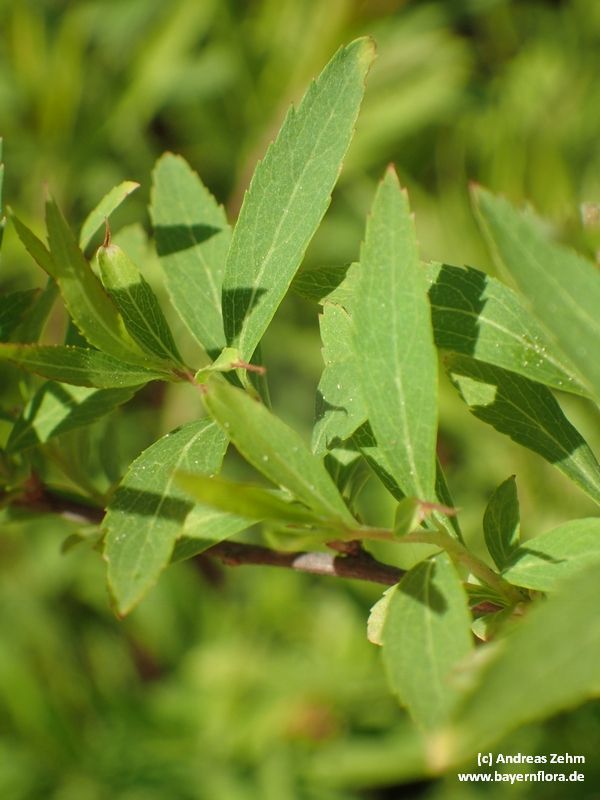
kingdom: Plantae
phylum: Tracheophyta
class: Magnoliopsida
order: Rosales
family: Rosaceae
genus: Spiraea
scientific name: Spiraea arguta
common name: Garland spiraea
